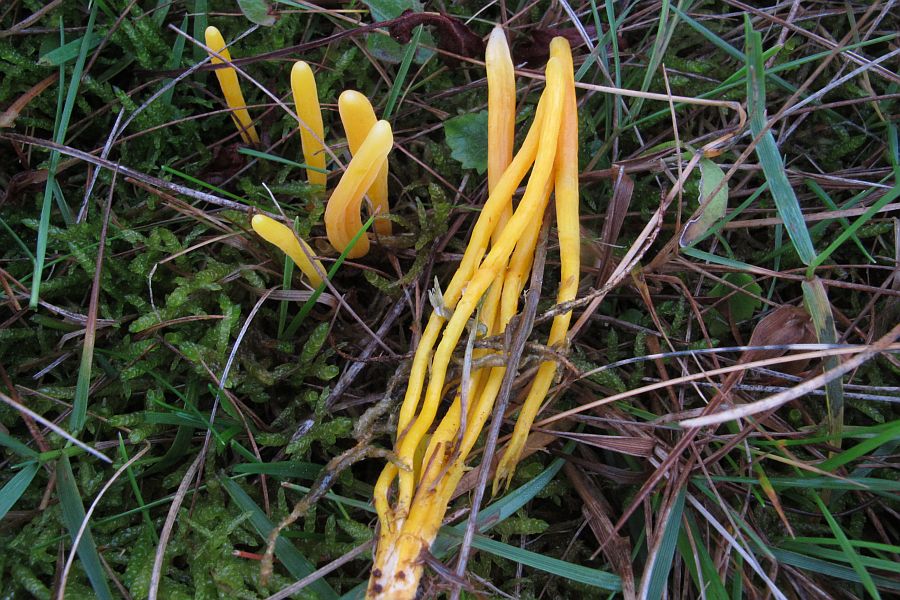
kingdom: Fungi
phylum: Basidiomycota
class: Agaricomycetes
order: Agaricales
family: Clavariaceae
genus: Clavulinopsis
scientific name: Clavulinopsis helvola
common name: orangegul køllesvamp
